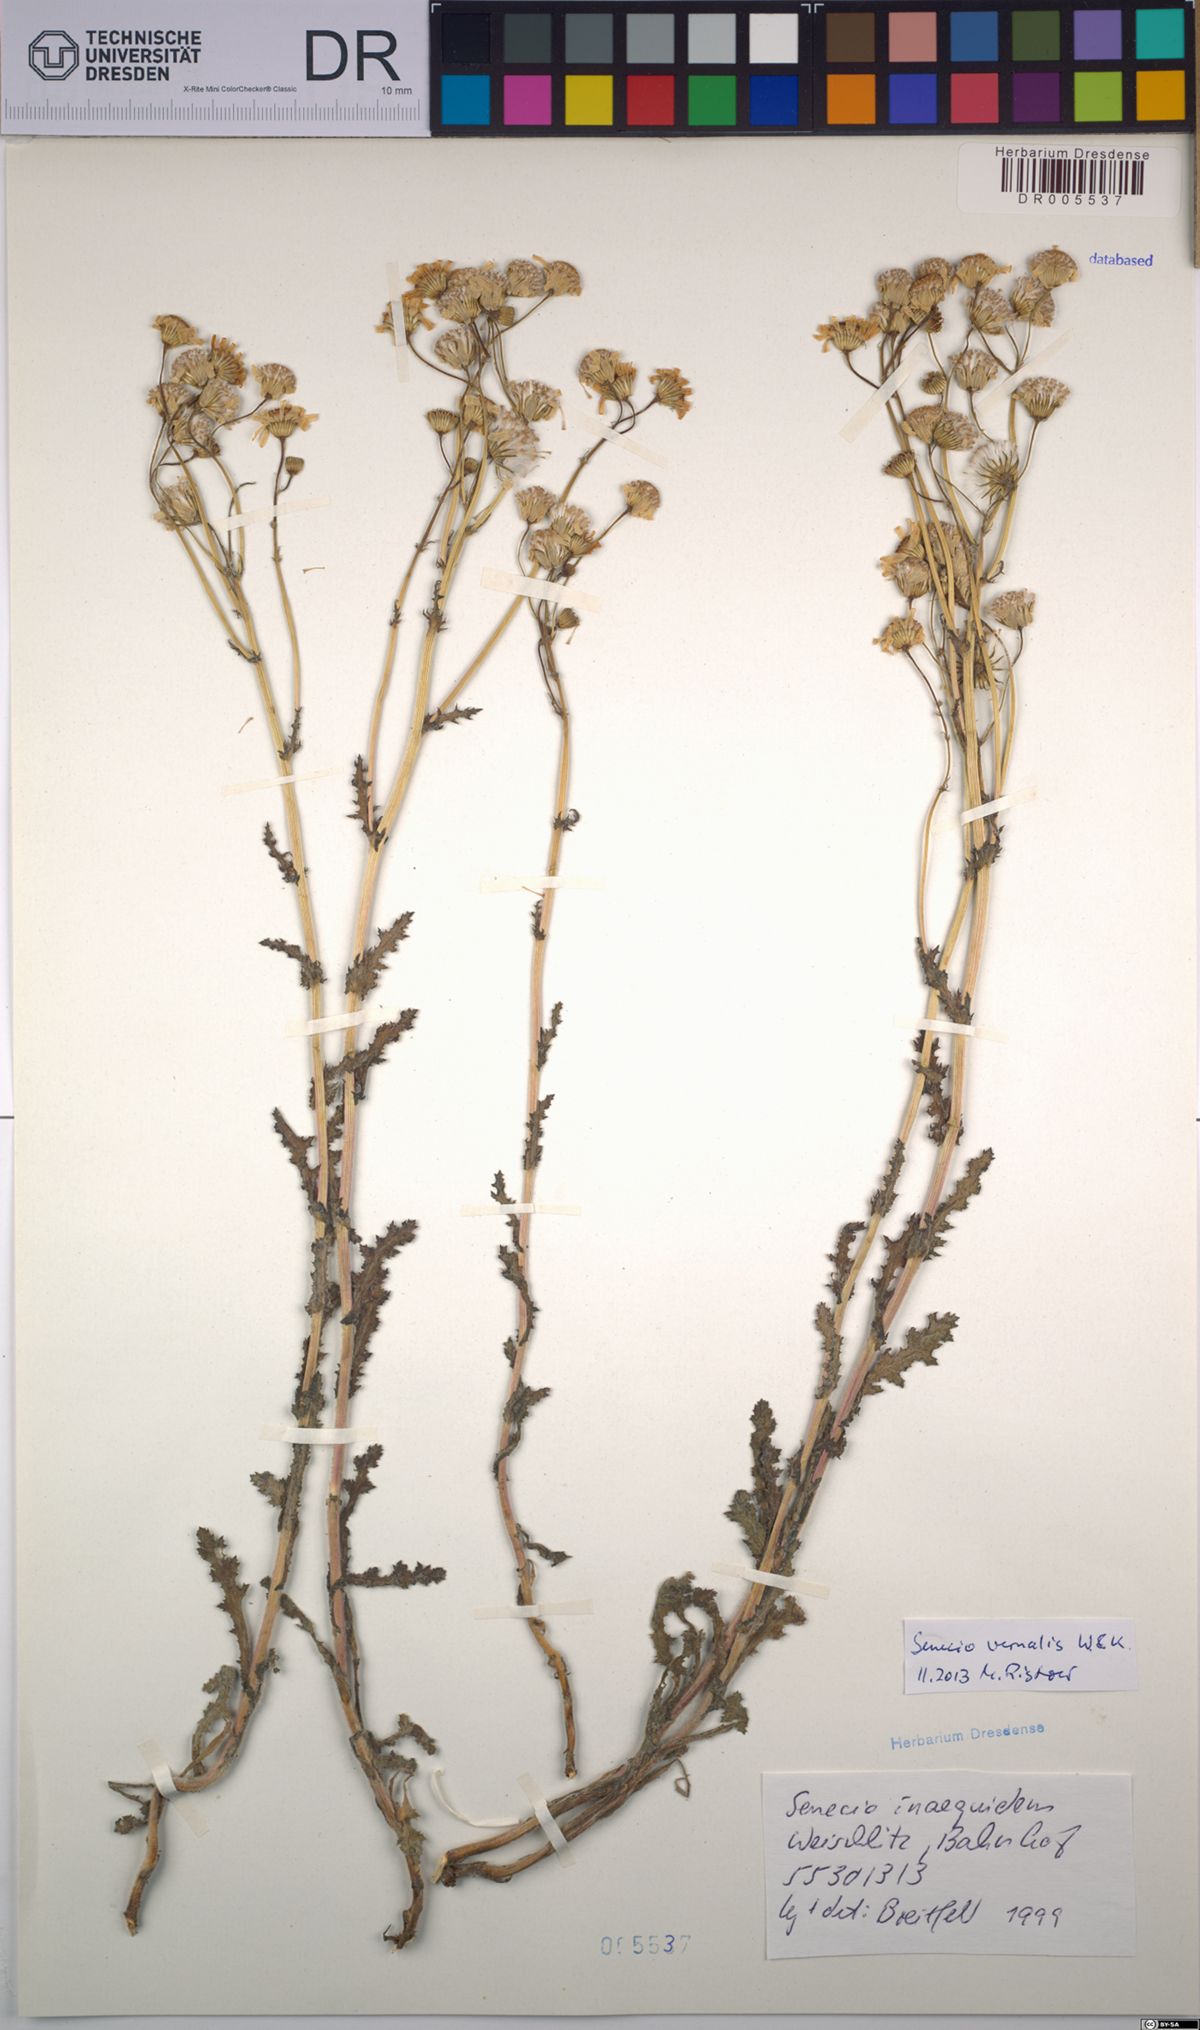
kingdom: Plantae
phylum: Tracheophyta
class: Magnoliopsida
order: Asterales
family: Asteraceae
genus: Senecio
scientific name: Senecio vernalis
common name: Eastern groundsel
